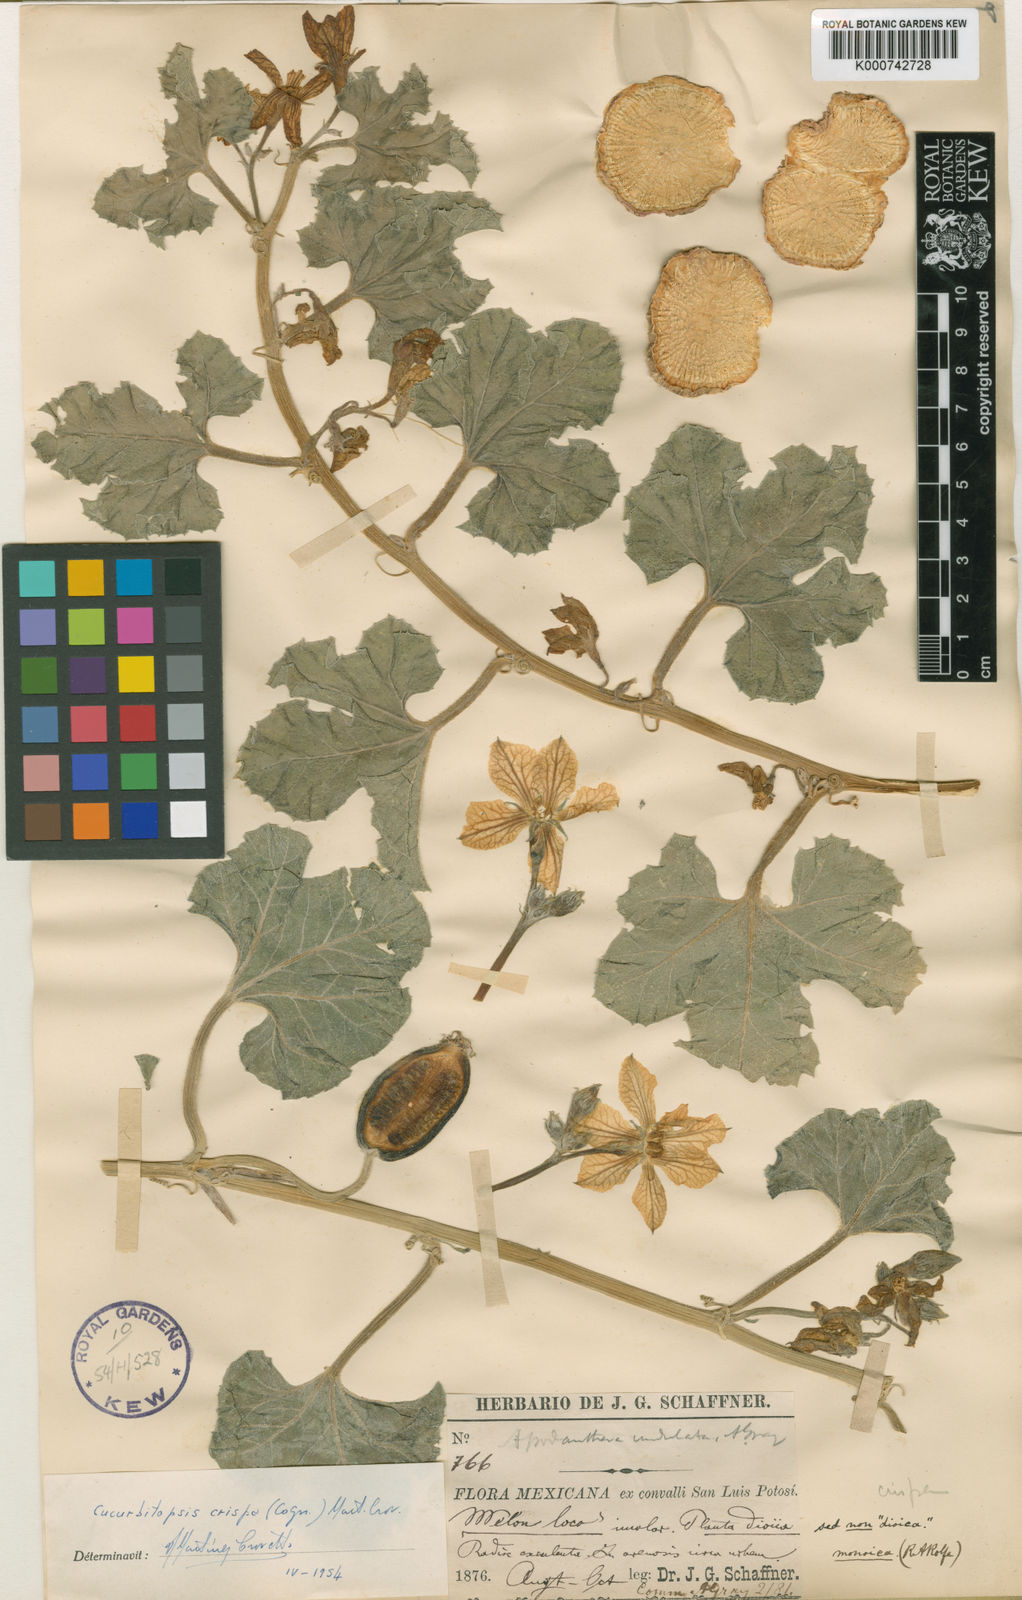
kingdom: Plantae
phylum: Tracheophyta
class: Magnoliopsida
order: Cucurbitales
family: Cucurbitaceae
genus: Apodanthera
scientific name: Apodanthera undulata
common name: Melon-loco
